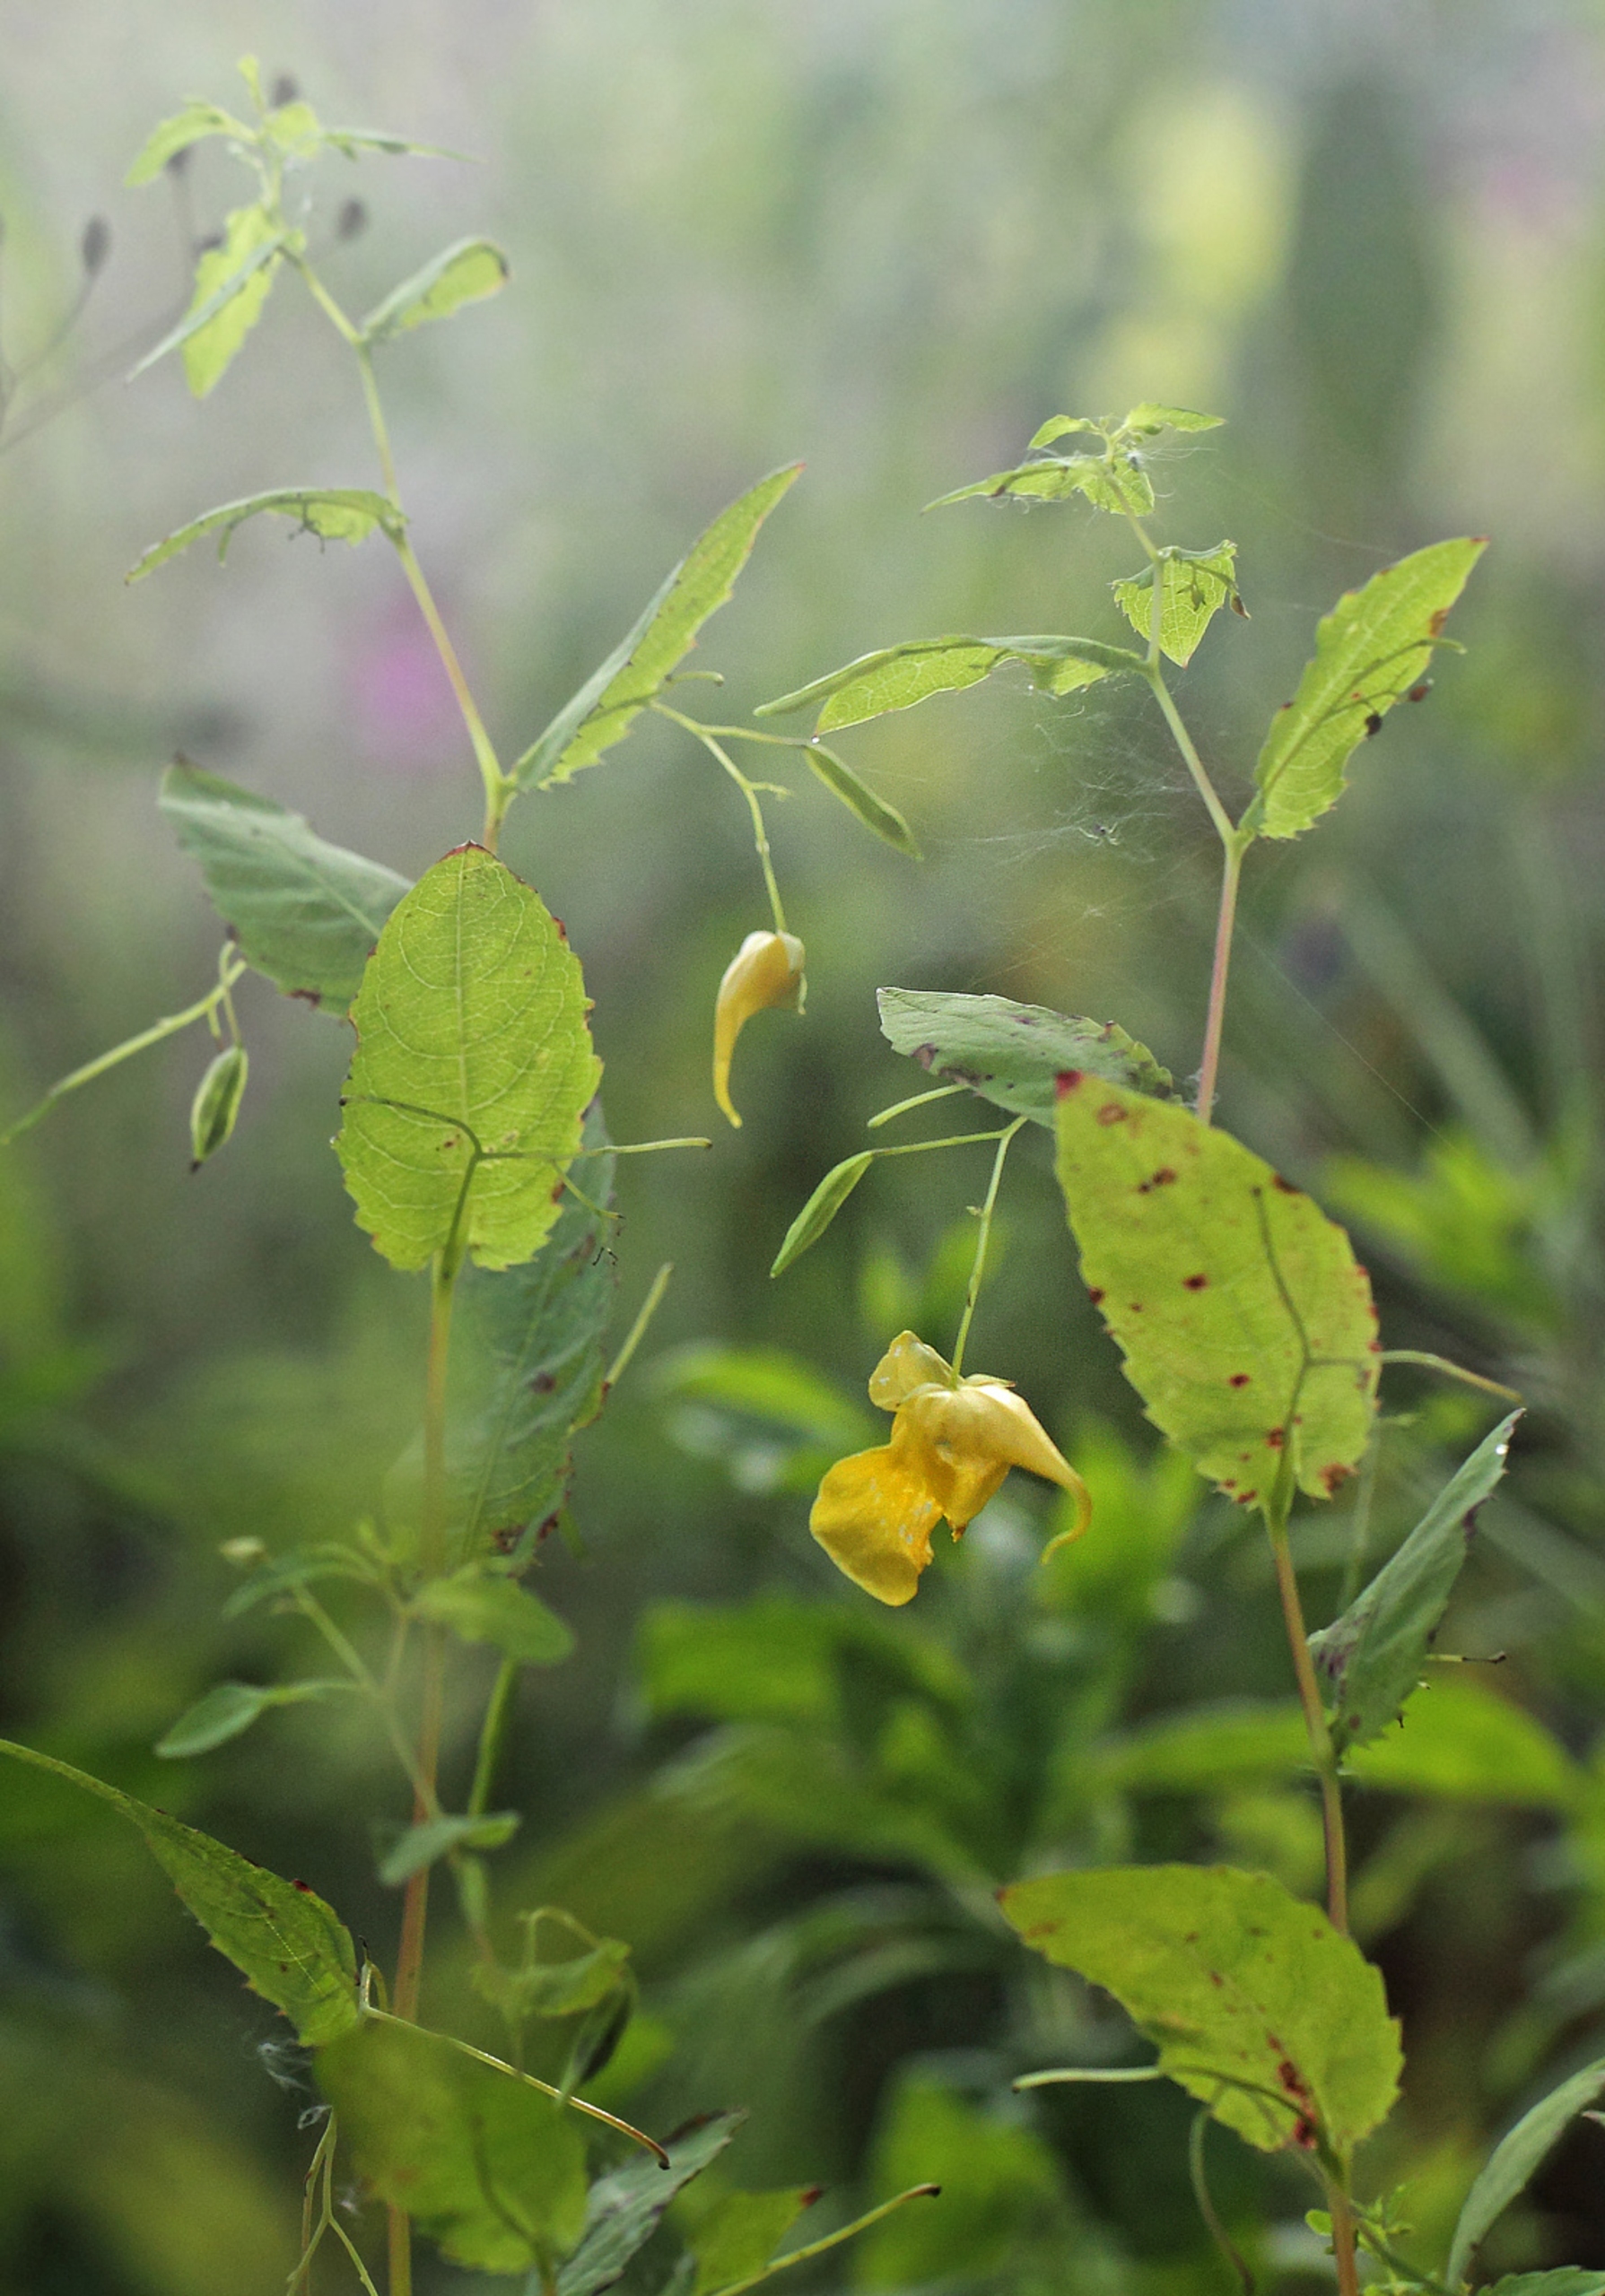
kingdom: Plantae
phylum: Tracheophyta
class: Magnoliopsida
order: Ericales
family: Balsaminaceae
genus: Impatiens
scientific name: Impatiens noli-tangere
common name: Spring-balsamin
